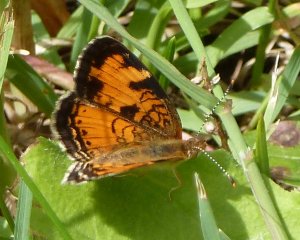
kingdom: Animalia
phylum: Arthropoda
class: Insecta
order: Lepidoptera
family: Nymphalidae
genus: Phyciodes
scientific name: Phyciodes tharos
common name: Northern Crescent
